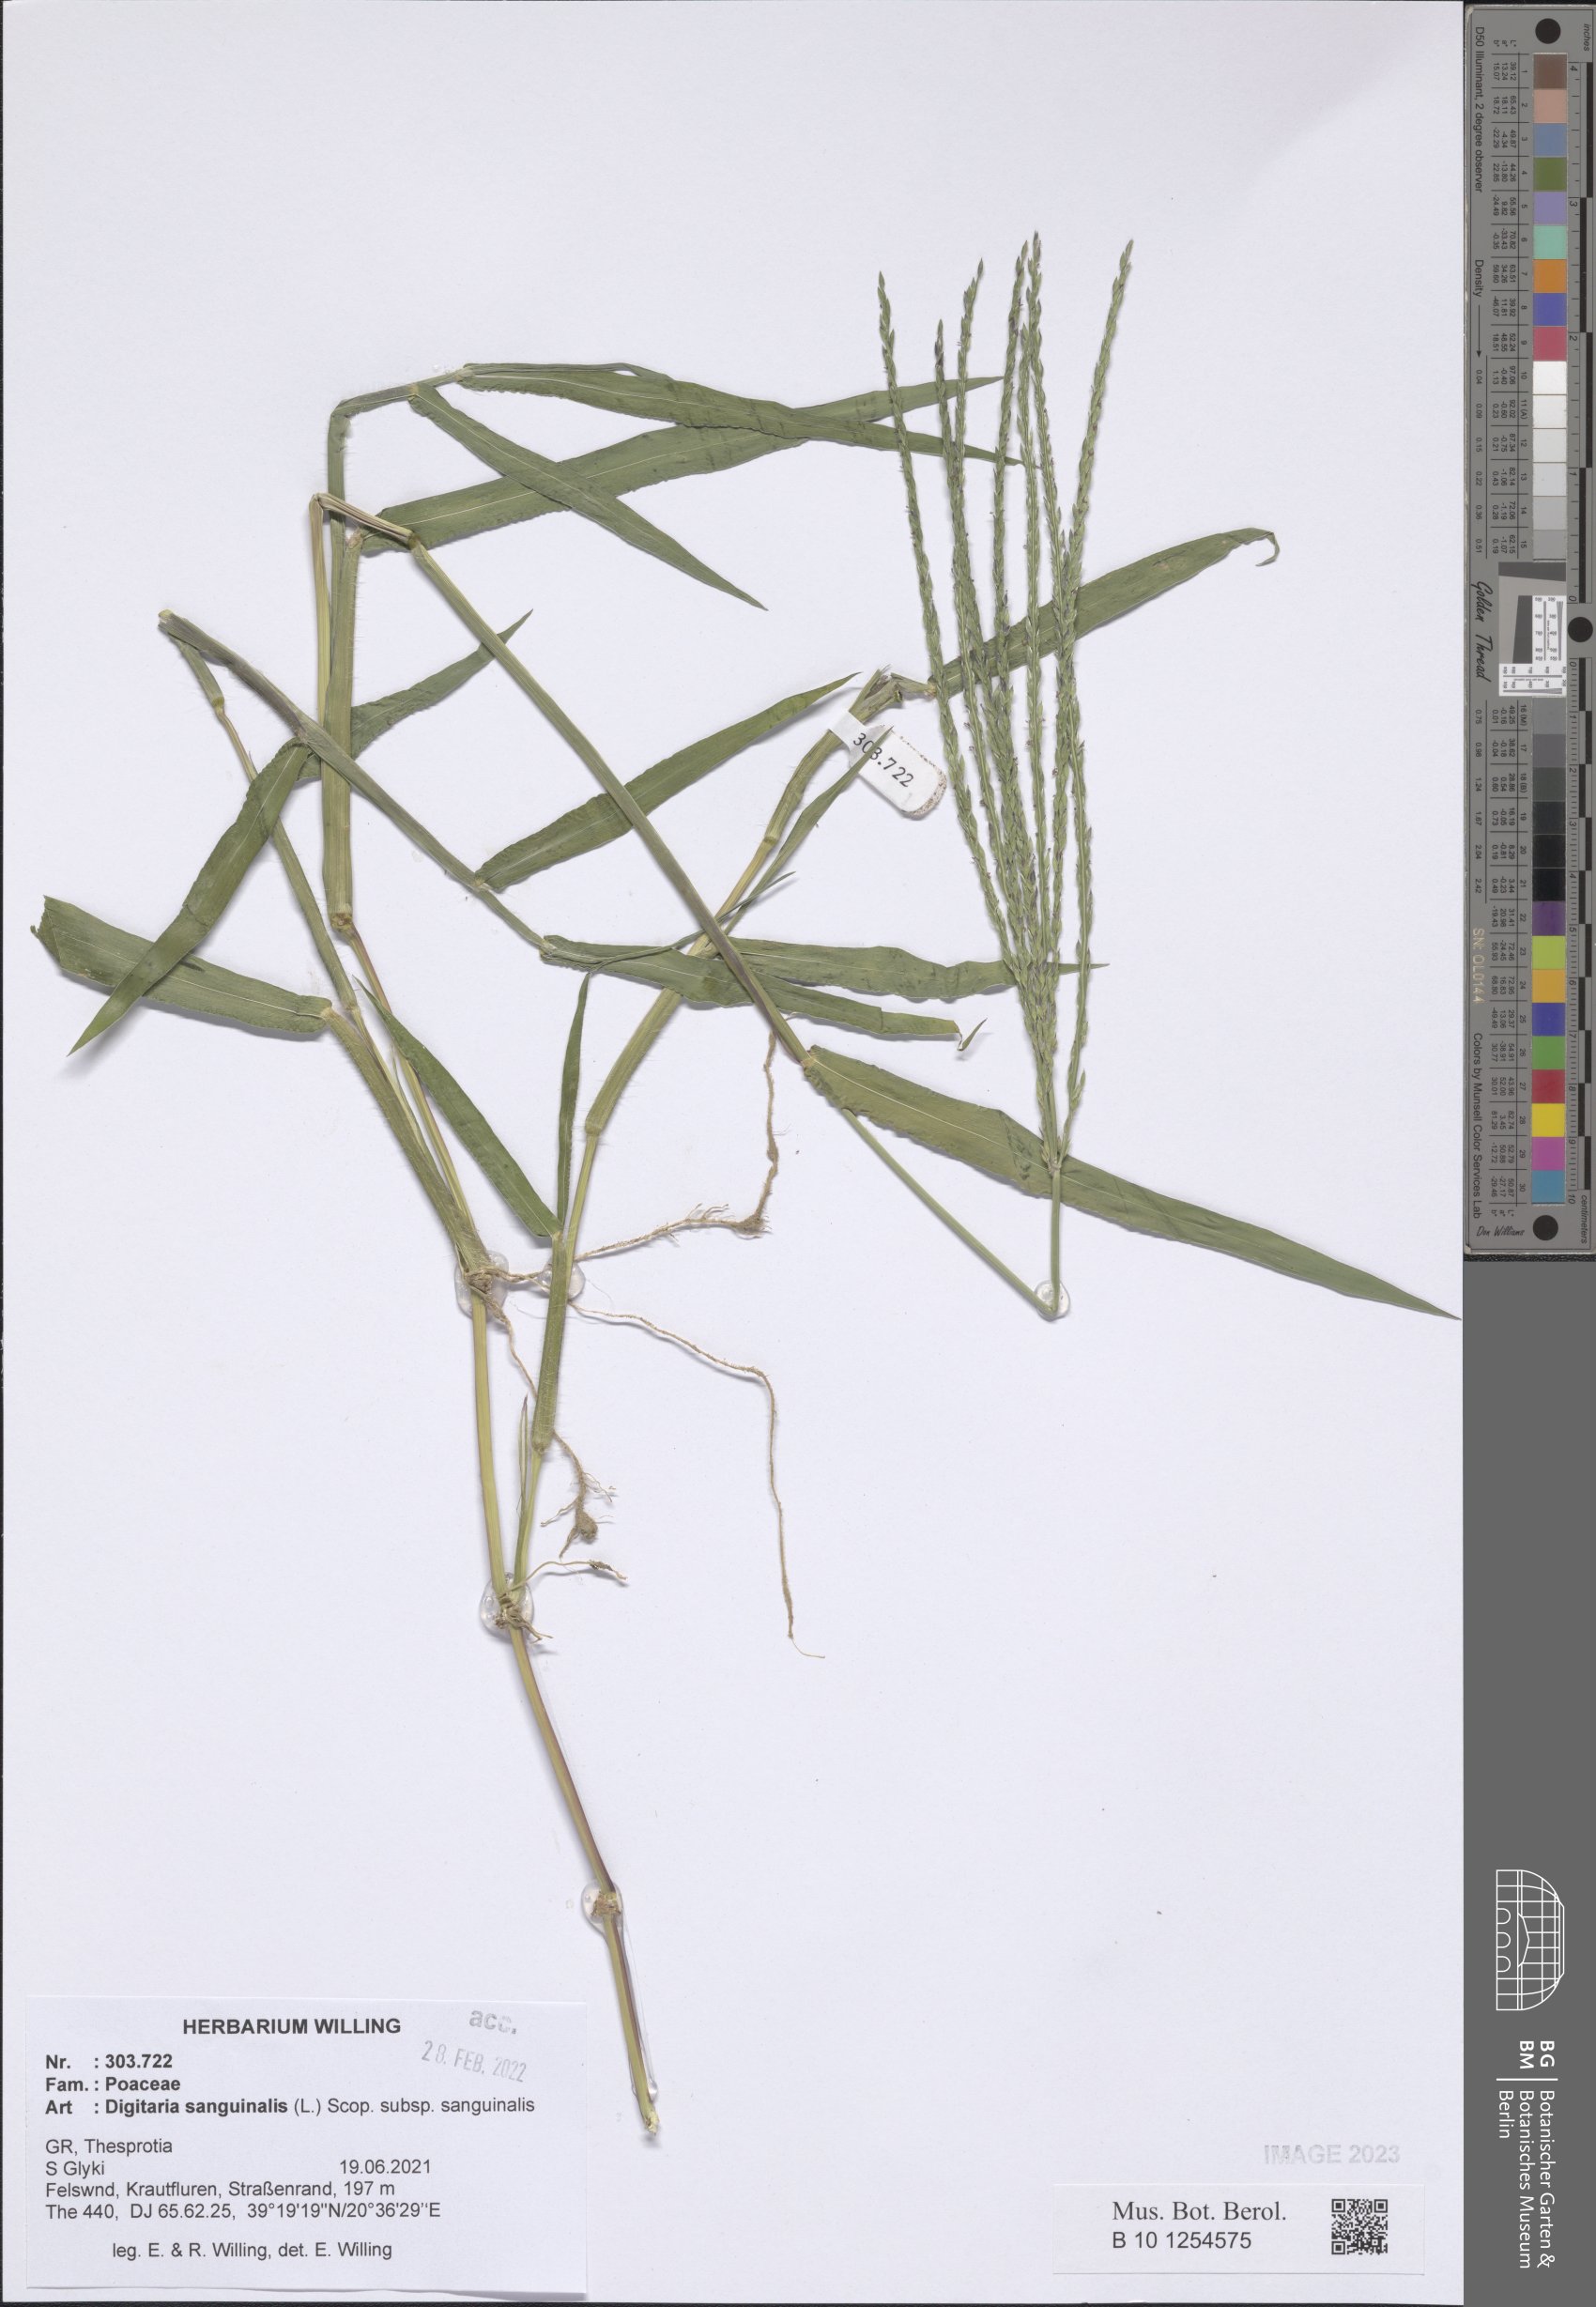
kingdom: Plantae
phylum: Tracheophyta
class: Liliopsida
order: Poales
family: Poaceae
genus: Digitaria
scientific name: Digitaria sanguinalis
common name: Hairy crabgrass
